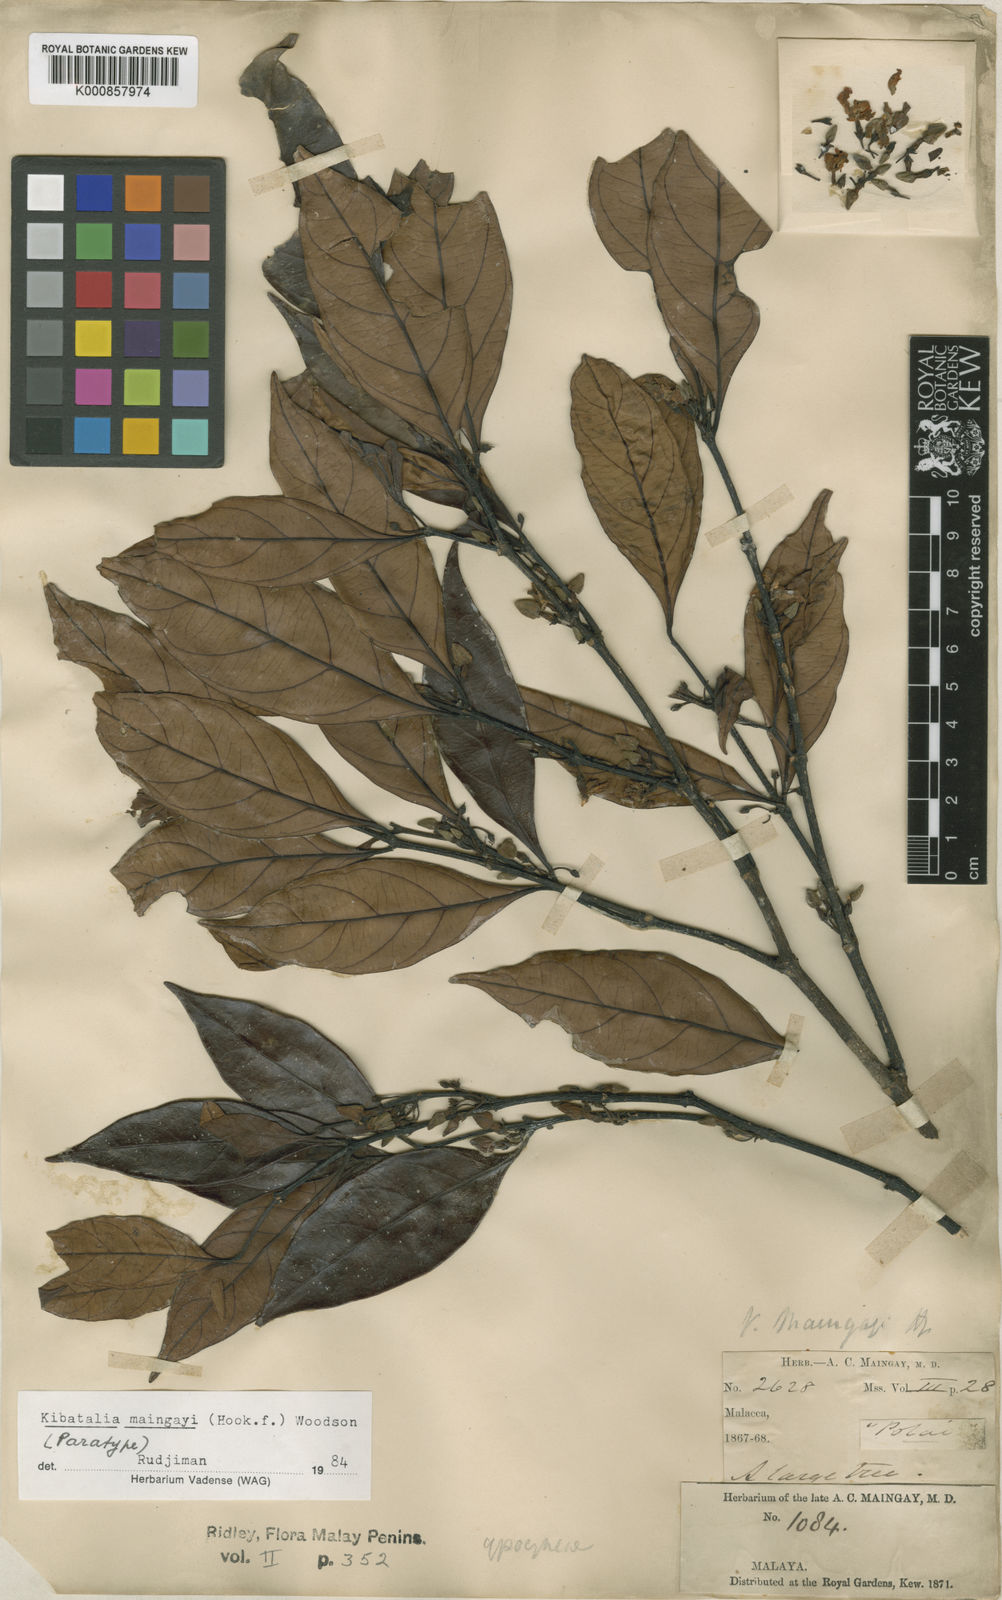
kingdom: Plantae
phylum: Tracheophyta
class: Magnoliopsida
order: Gentianales
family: Apocynaceae
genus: Kibatalia
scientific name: Kibatalia maingayi
